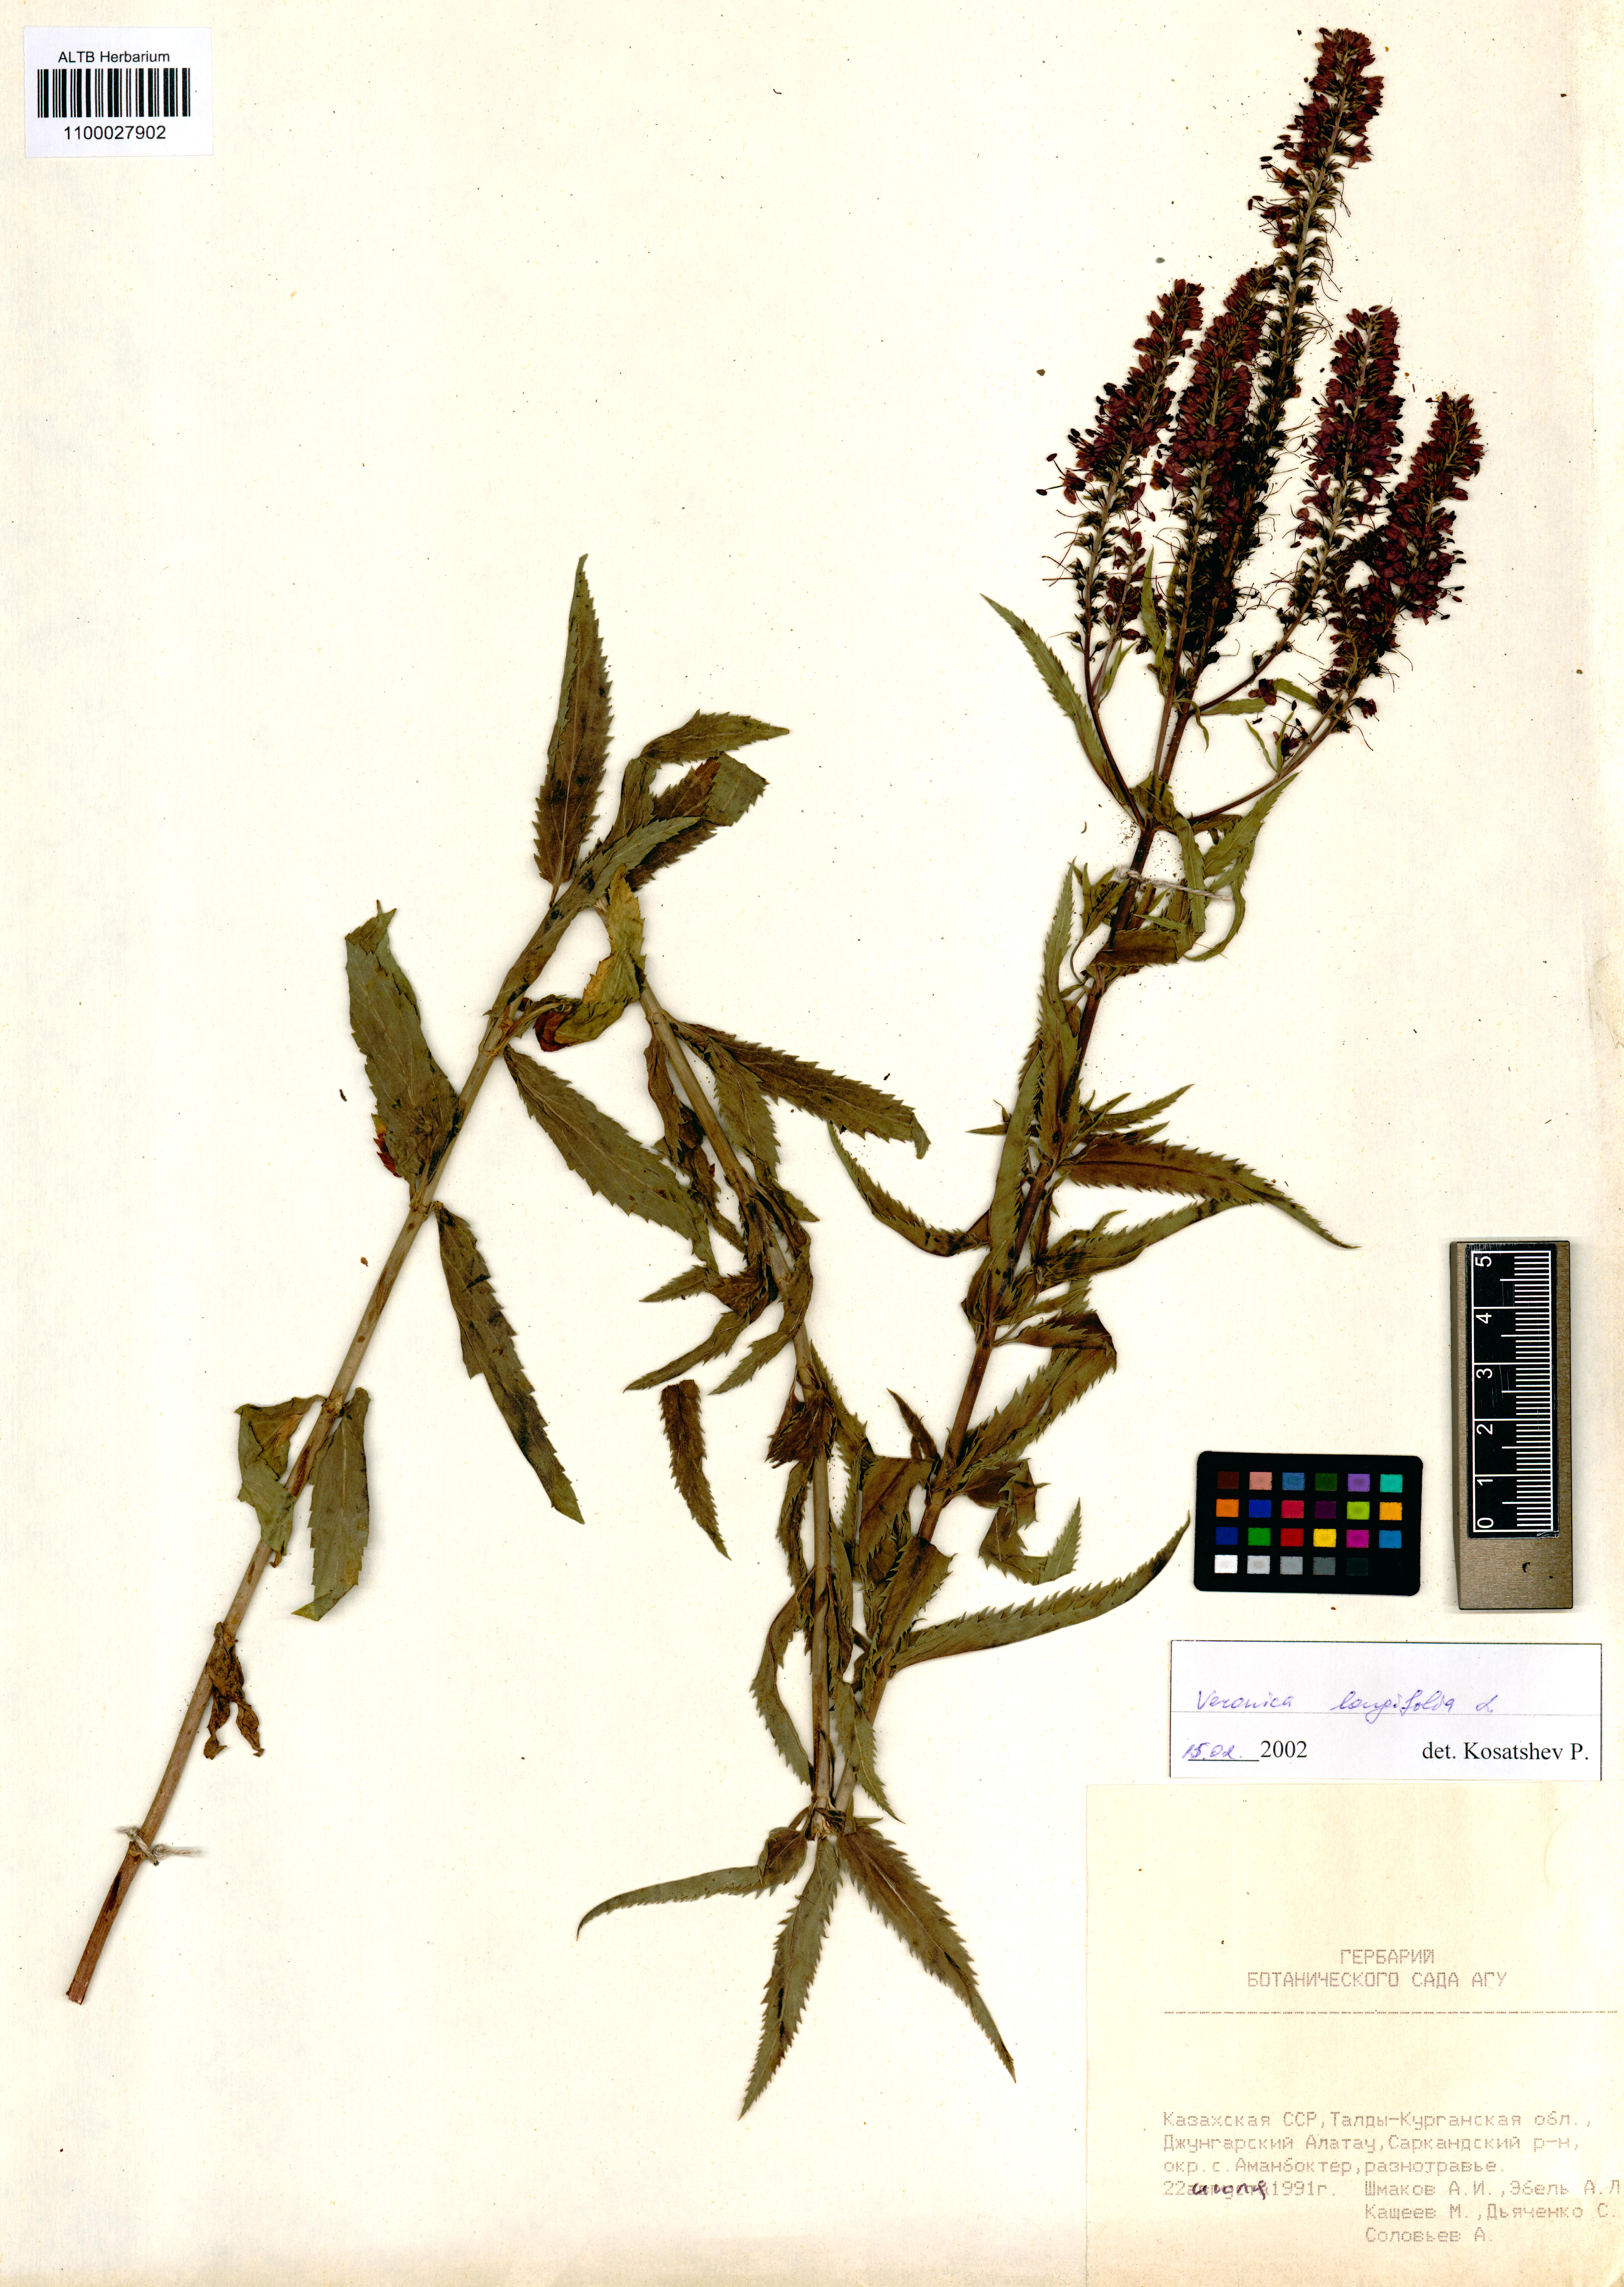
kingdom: Plantae
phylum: Tracheophyta
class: Magnoliopsida
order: Lamiales
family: Plantaginaceae
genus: Veronica
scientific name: Veronica longifolia
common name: Garden speedwell
